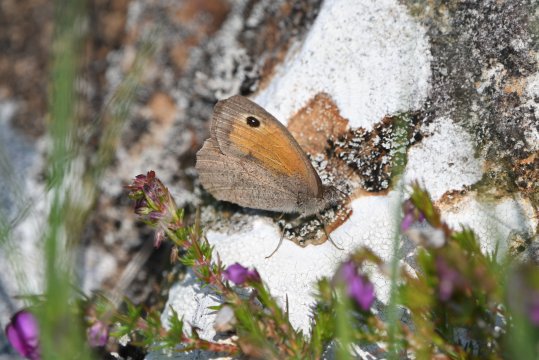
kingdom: Animalia
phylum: Arthropoda
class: Insecta
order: Lepidoptera
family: Nymphalidae
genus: Maniola
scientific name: Maniola jurtina
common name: Meadow Brown
